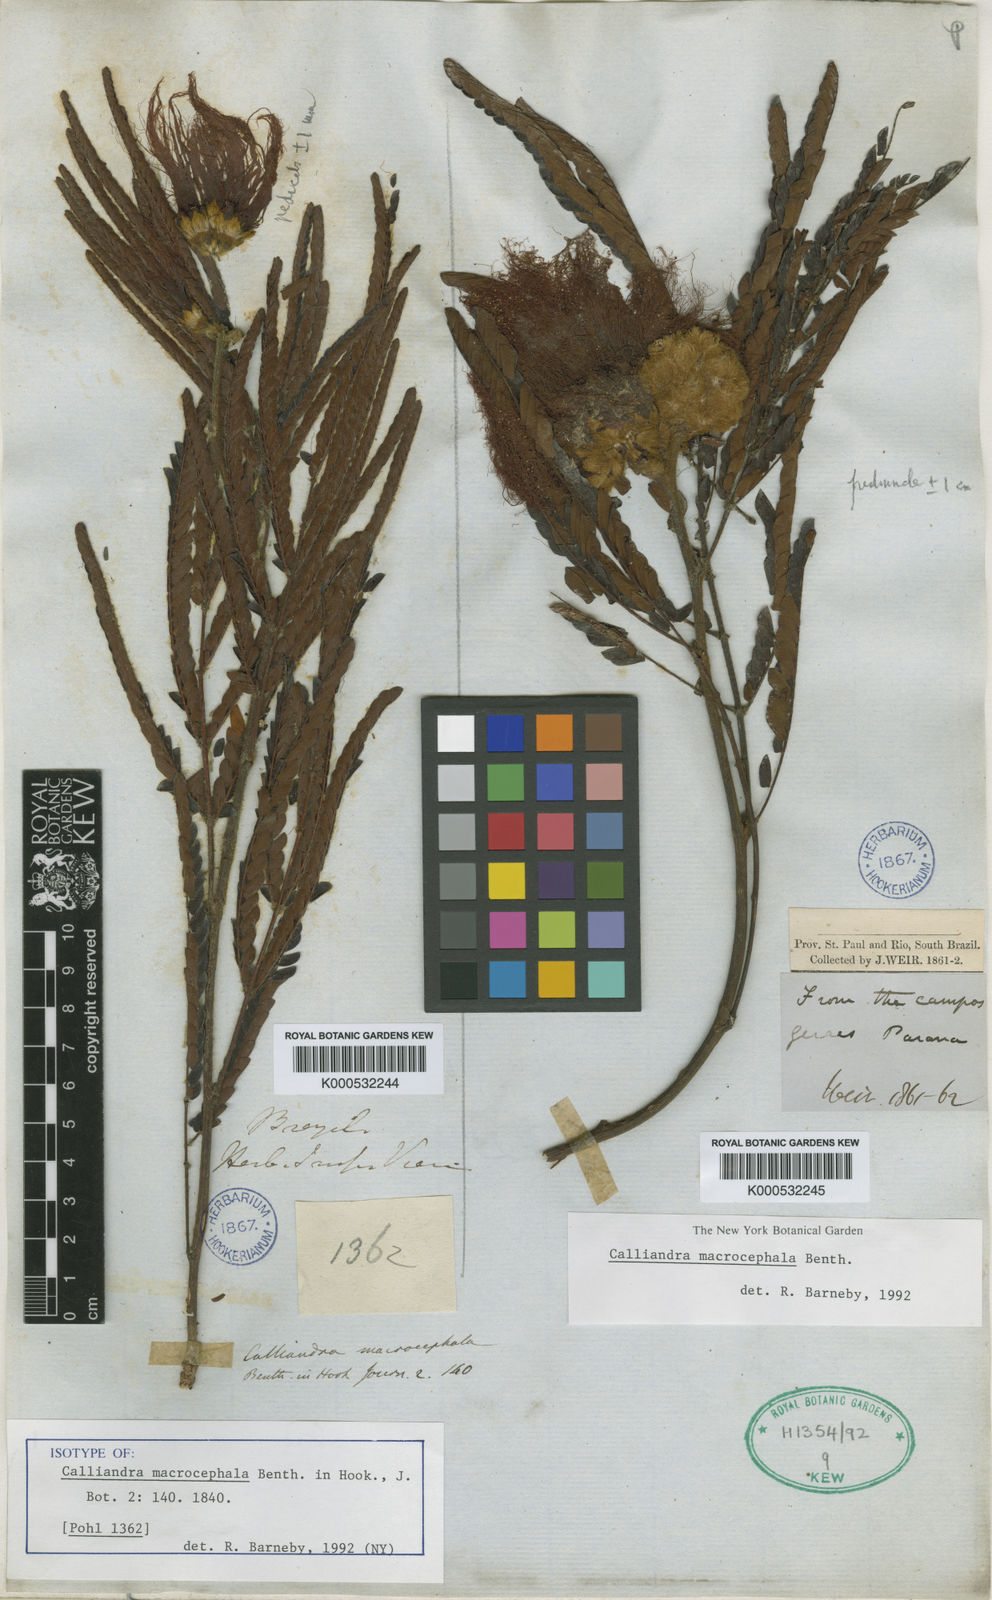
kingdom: Plantae
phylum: Tracheophyta
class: Magnoliopsida
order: Fabales
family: Fabaceae
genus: Calliandra
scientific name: Calliandra dysantha
